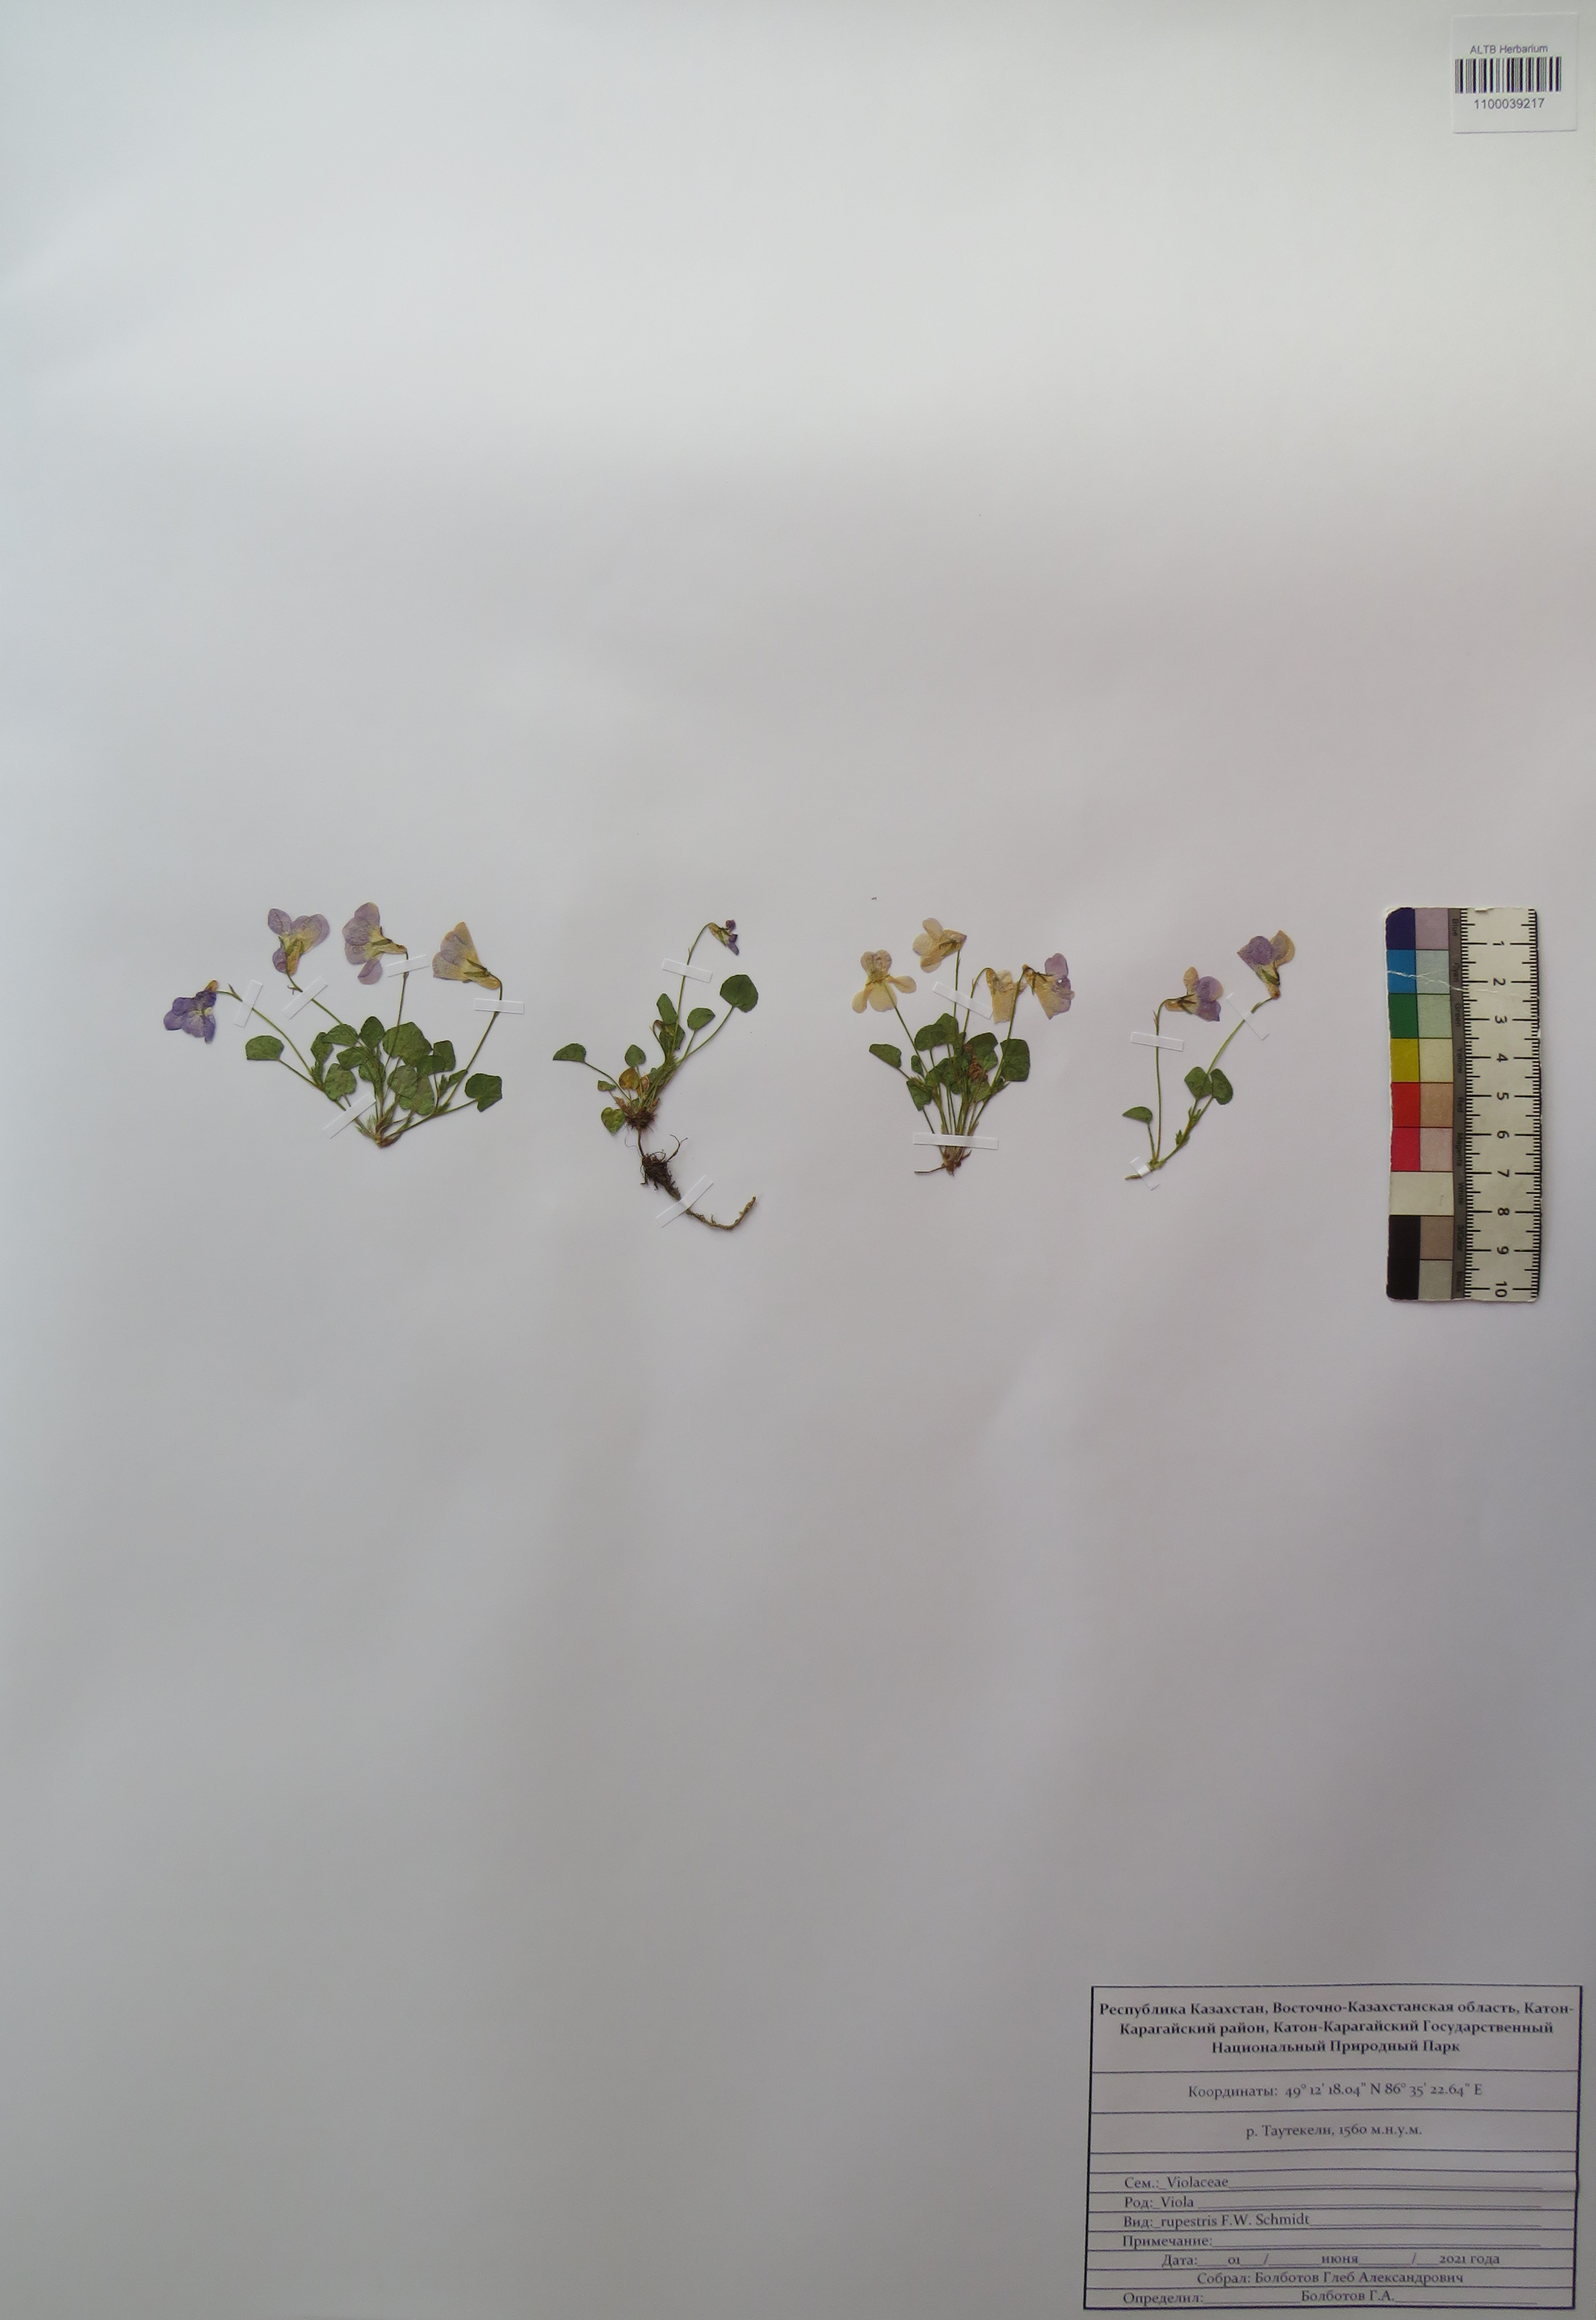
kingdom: Plantae
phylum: Tracheophyta
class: Magnoliopsida
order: Malpighiales
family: Violaceae
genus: Viola
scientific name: Viola rupestris
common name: Teesdale violet
